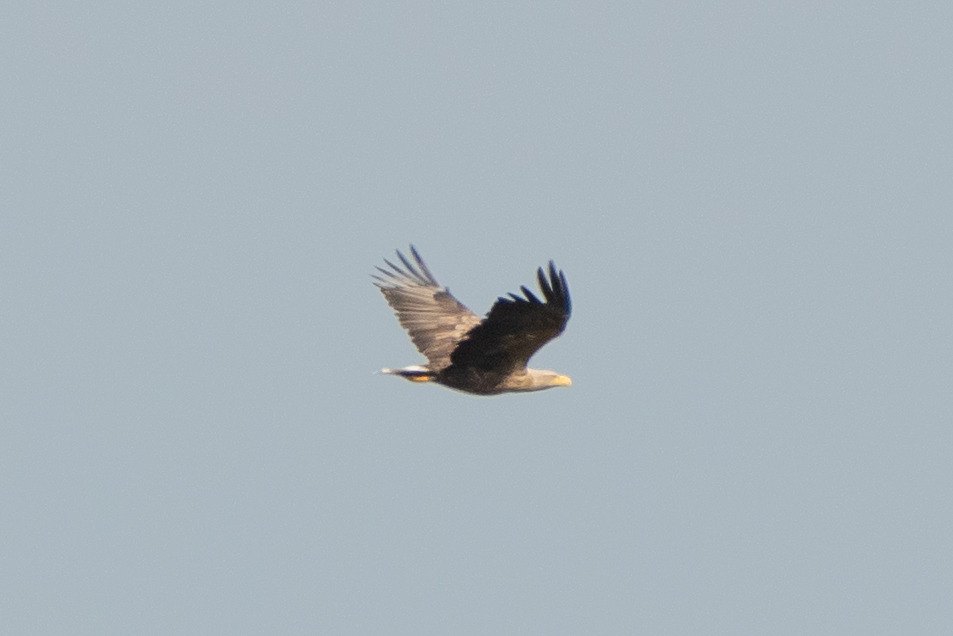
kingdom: Animalia
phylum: Chordata
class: Aves
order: Accipitriformes
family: Accipitridae
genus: Haliaeetus
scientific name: Haliaeetus albicilla
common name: Havørn
